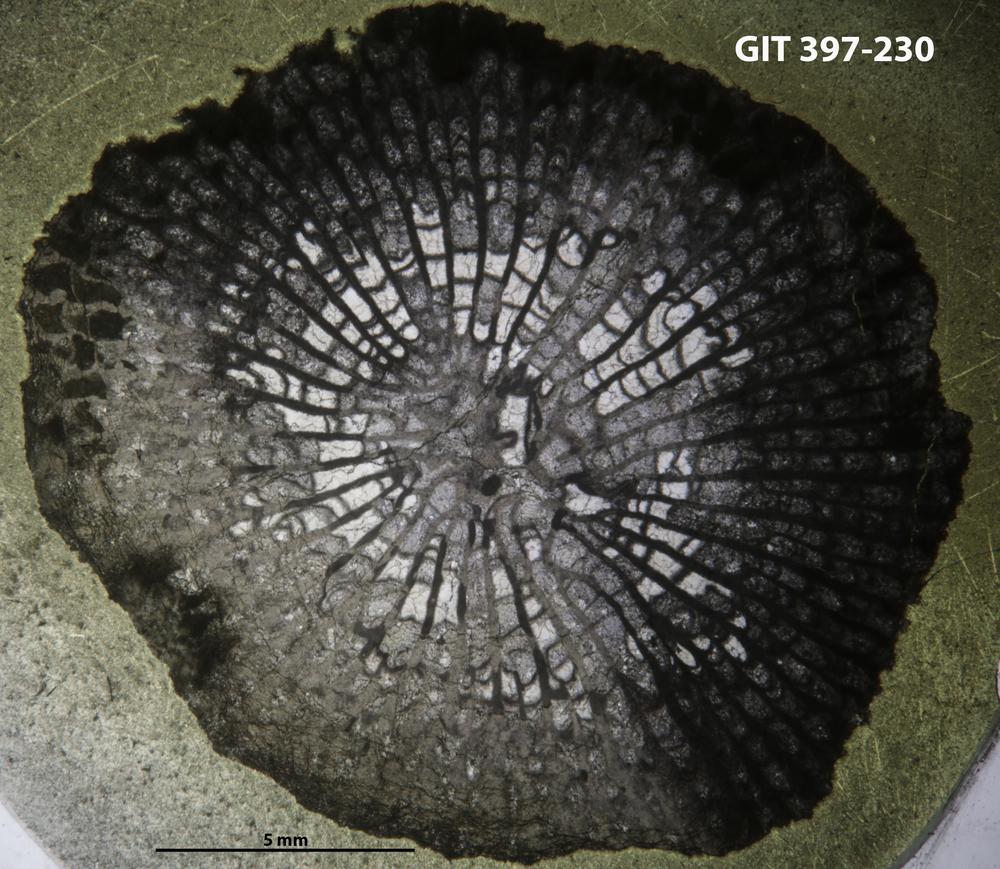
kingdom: Animalia
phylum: Cnidaria
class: Anthozoa
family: Paliphyllidae
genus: Paliphyllum
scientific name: Paliphyllum
